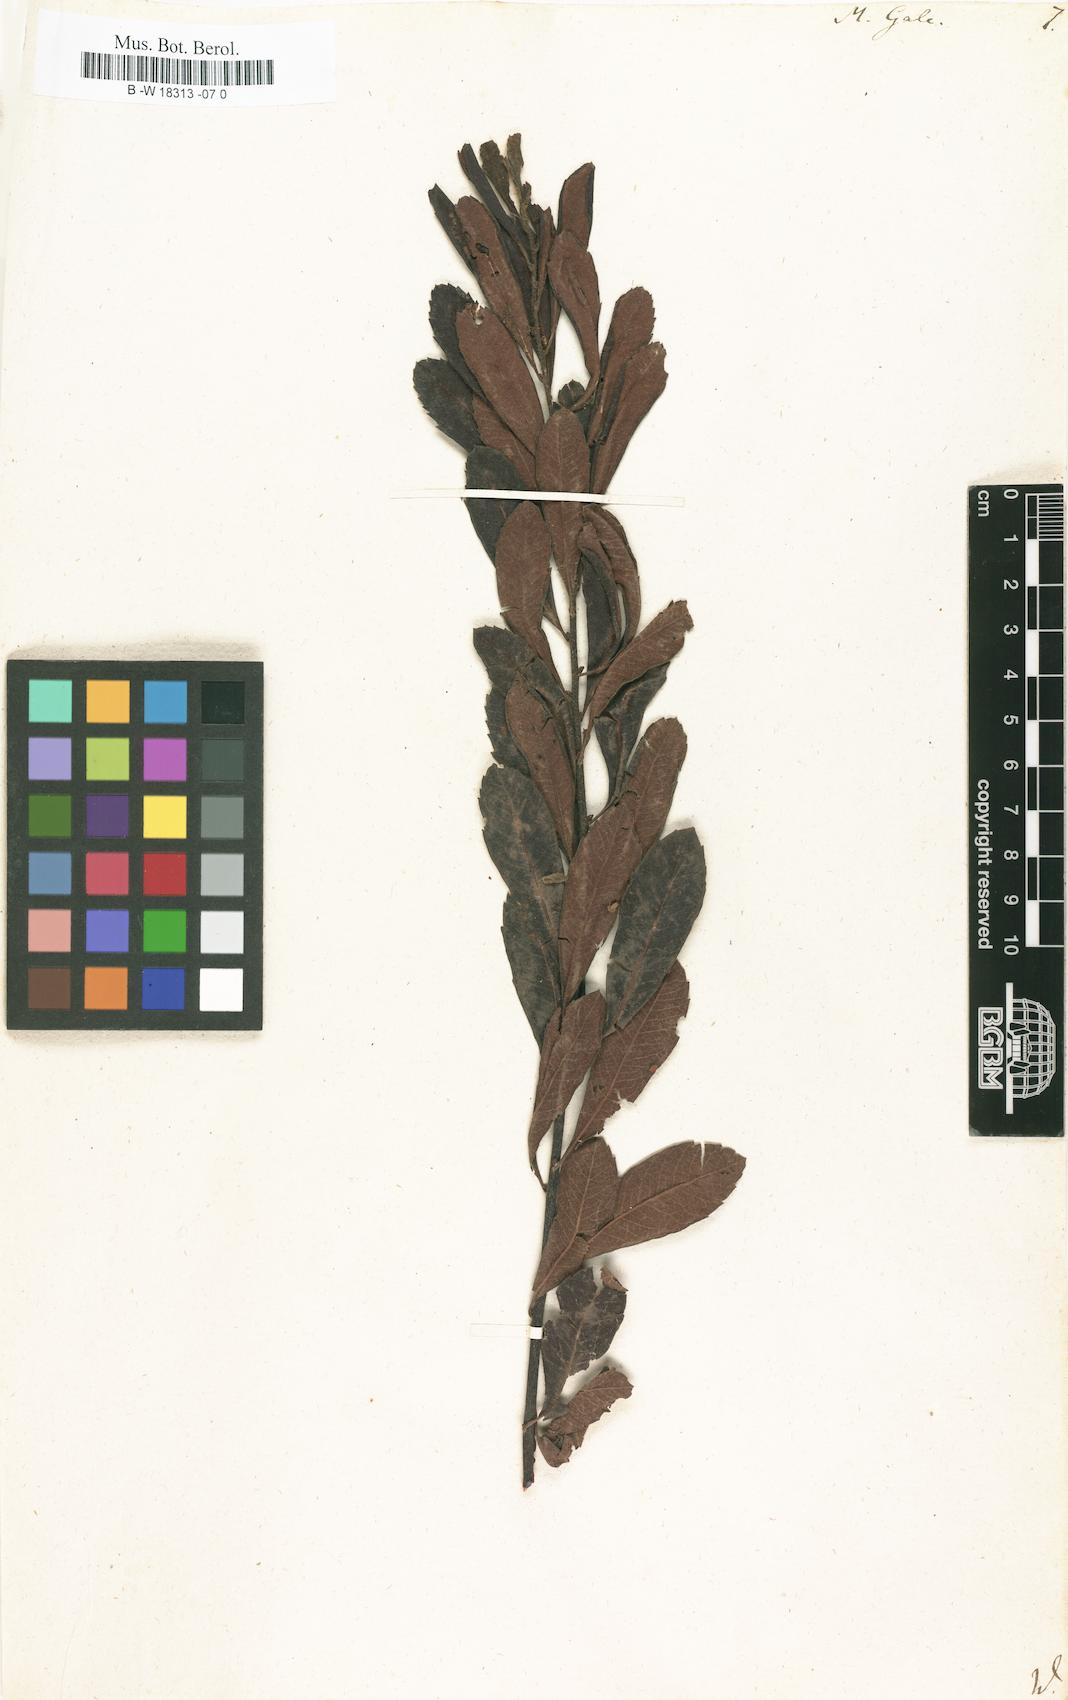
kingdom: Plantae
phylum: Tracheophyta
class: Magnoliopsida
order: Fagales
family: Myricaceae
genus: Myrica
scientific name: Myrica gale
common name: Sweet gale
